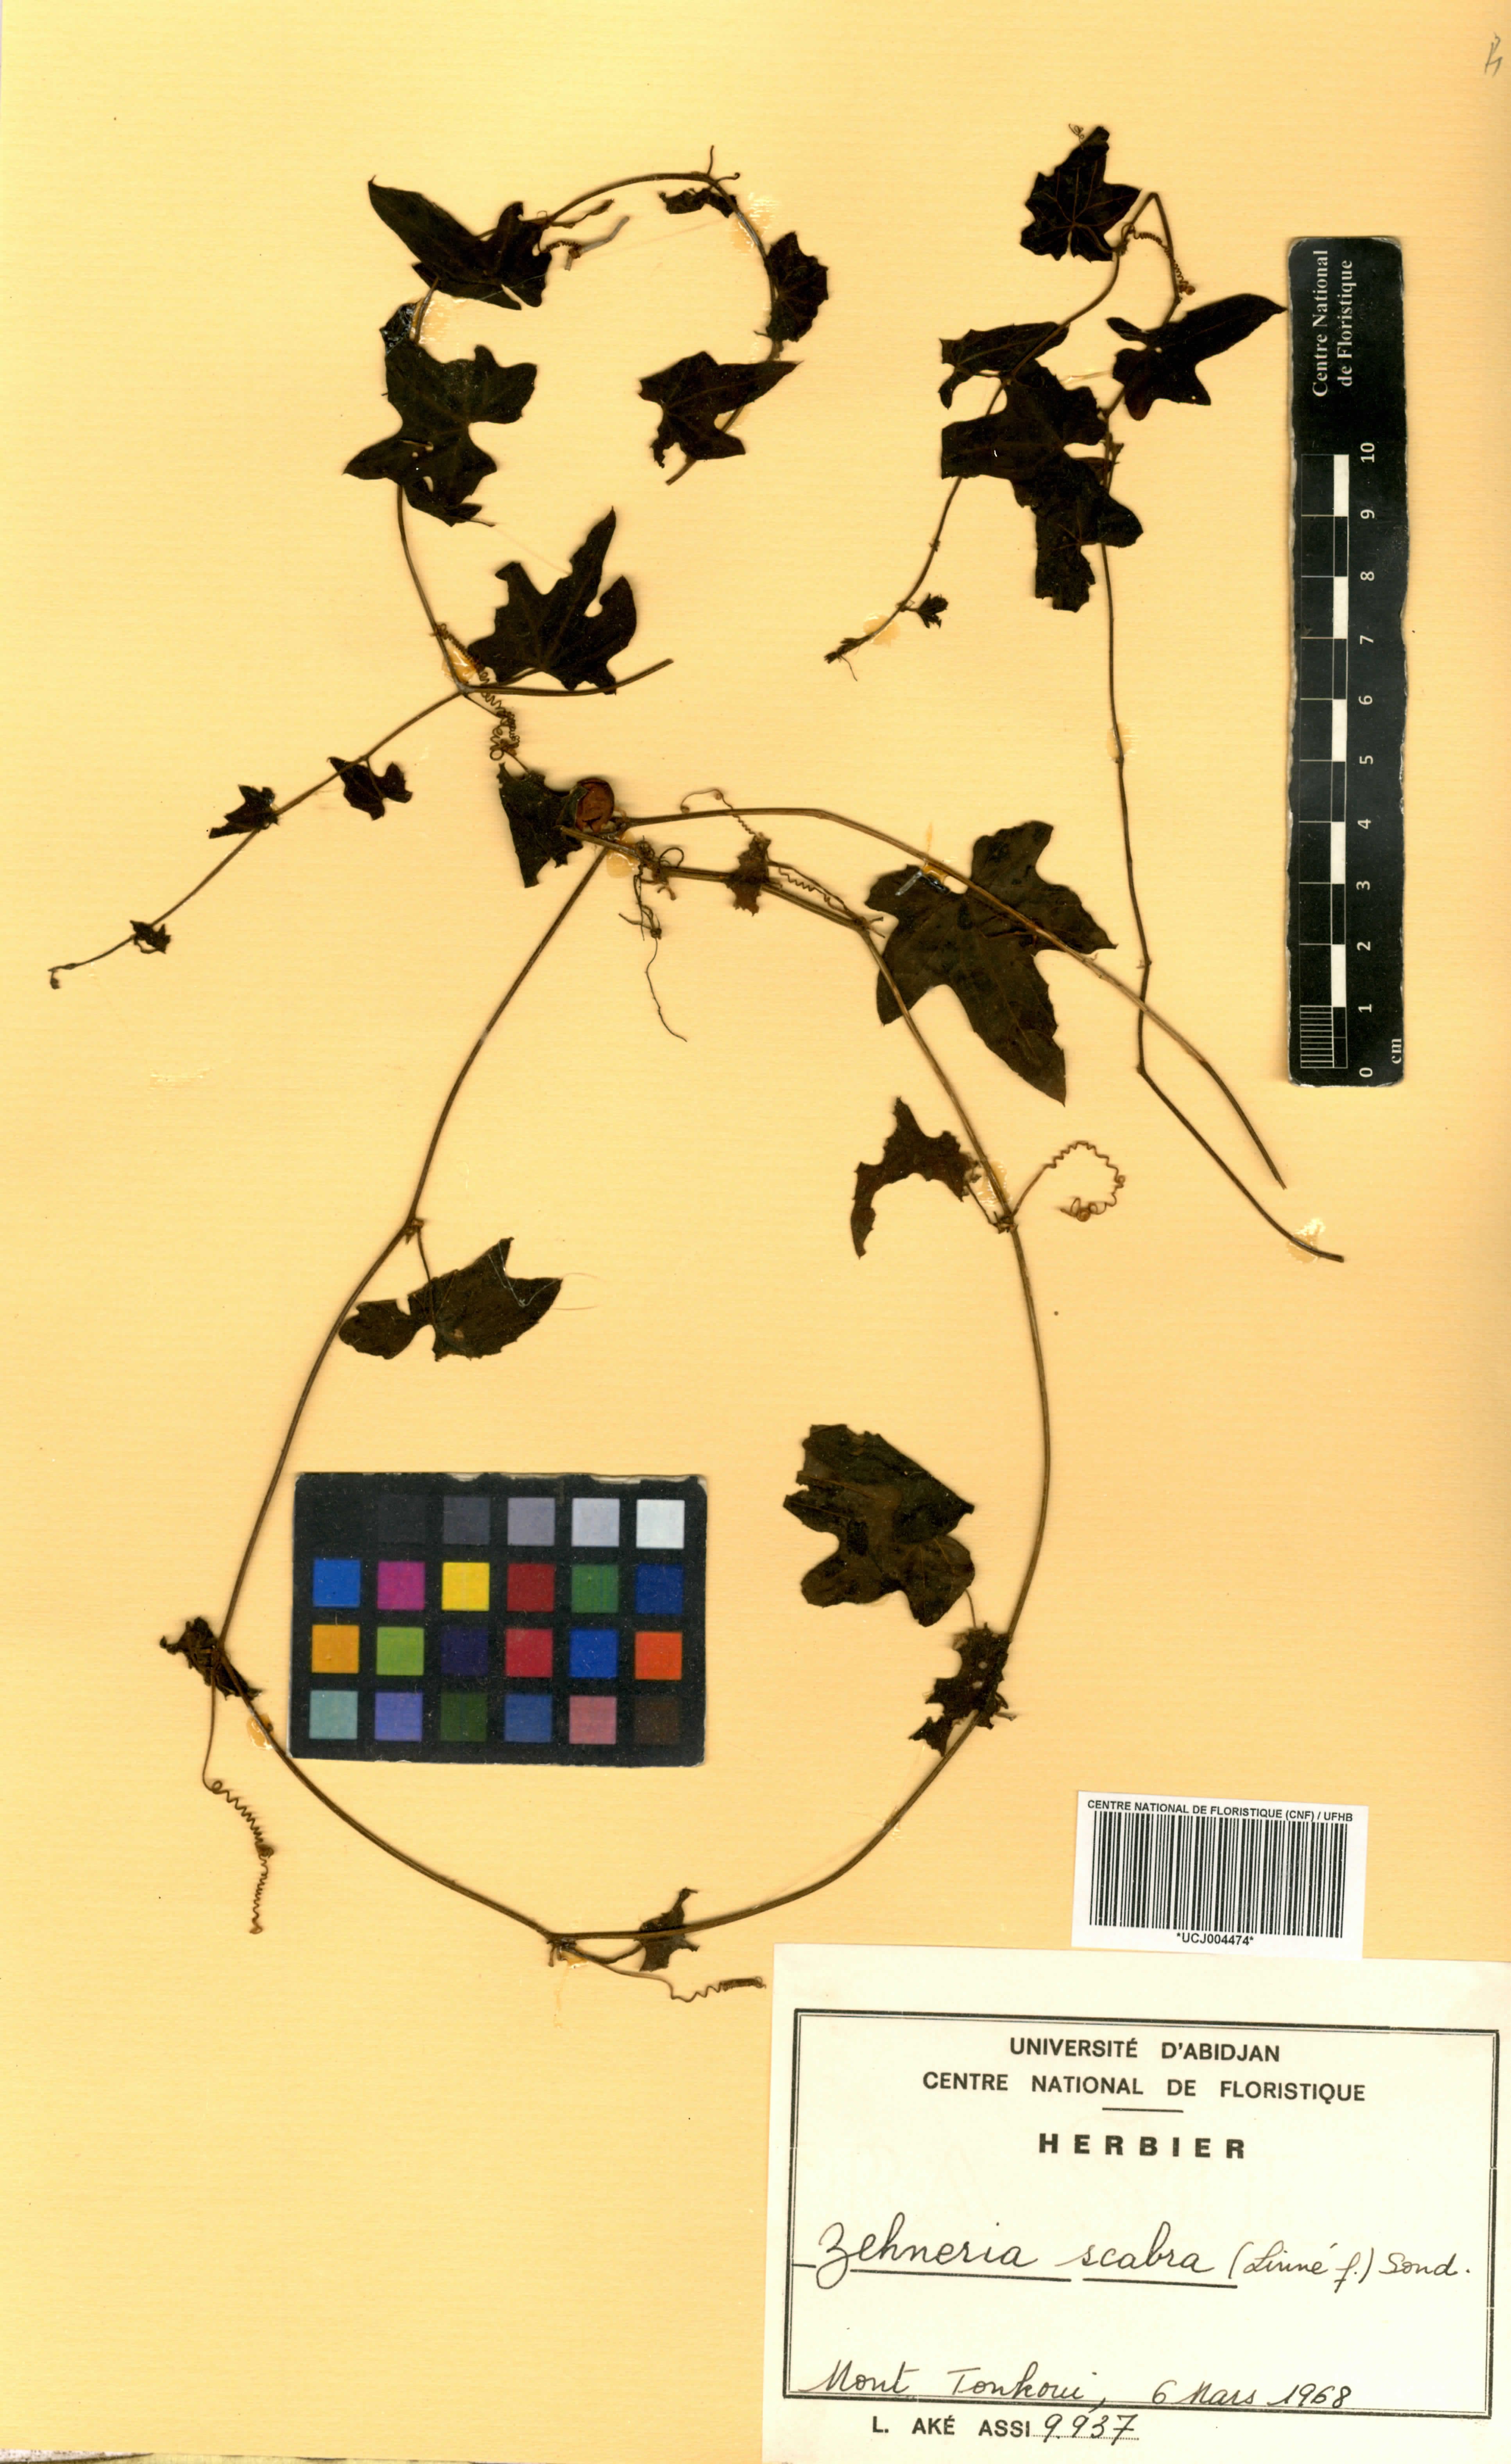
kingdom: Plantae
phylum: Tracheophyta
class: Magnoliopsida
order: Cucurbitales
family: Cucurbitaceae
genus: Zehneria
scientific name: Zehneria scabra
